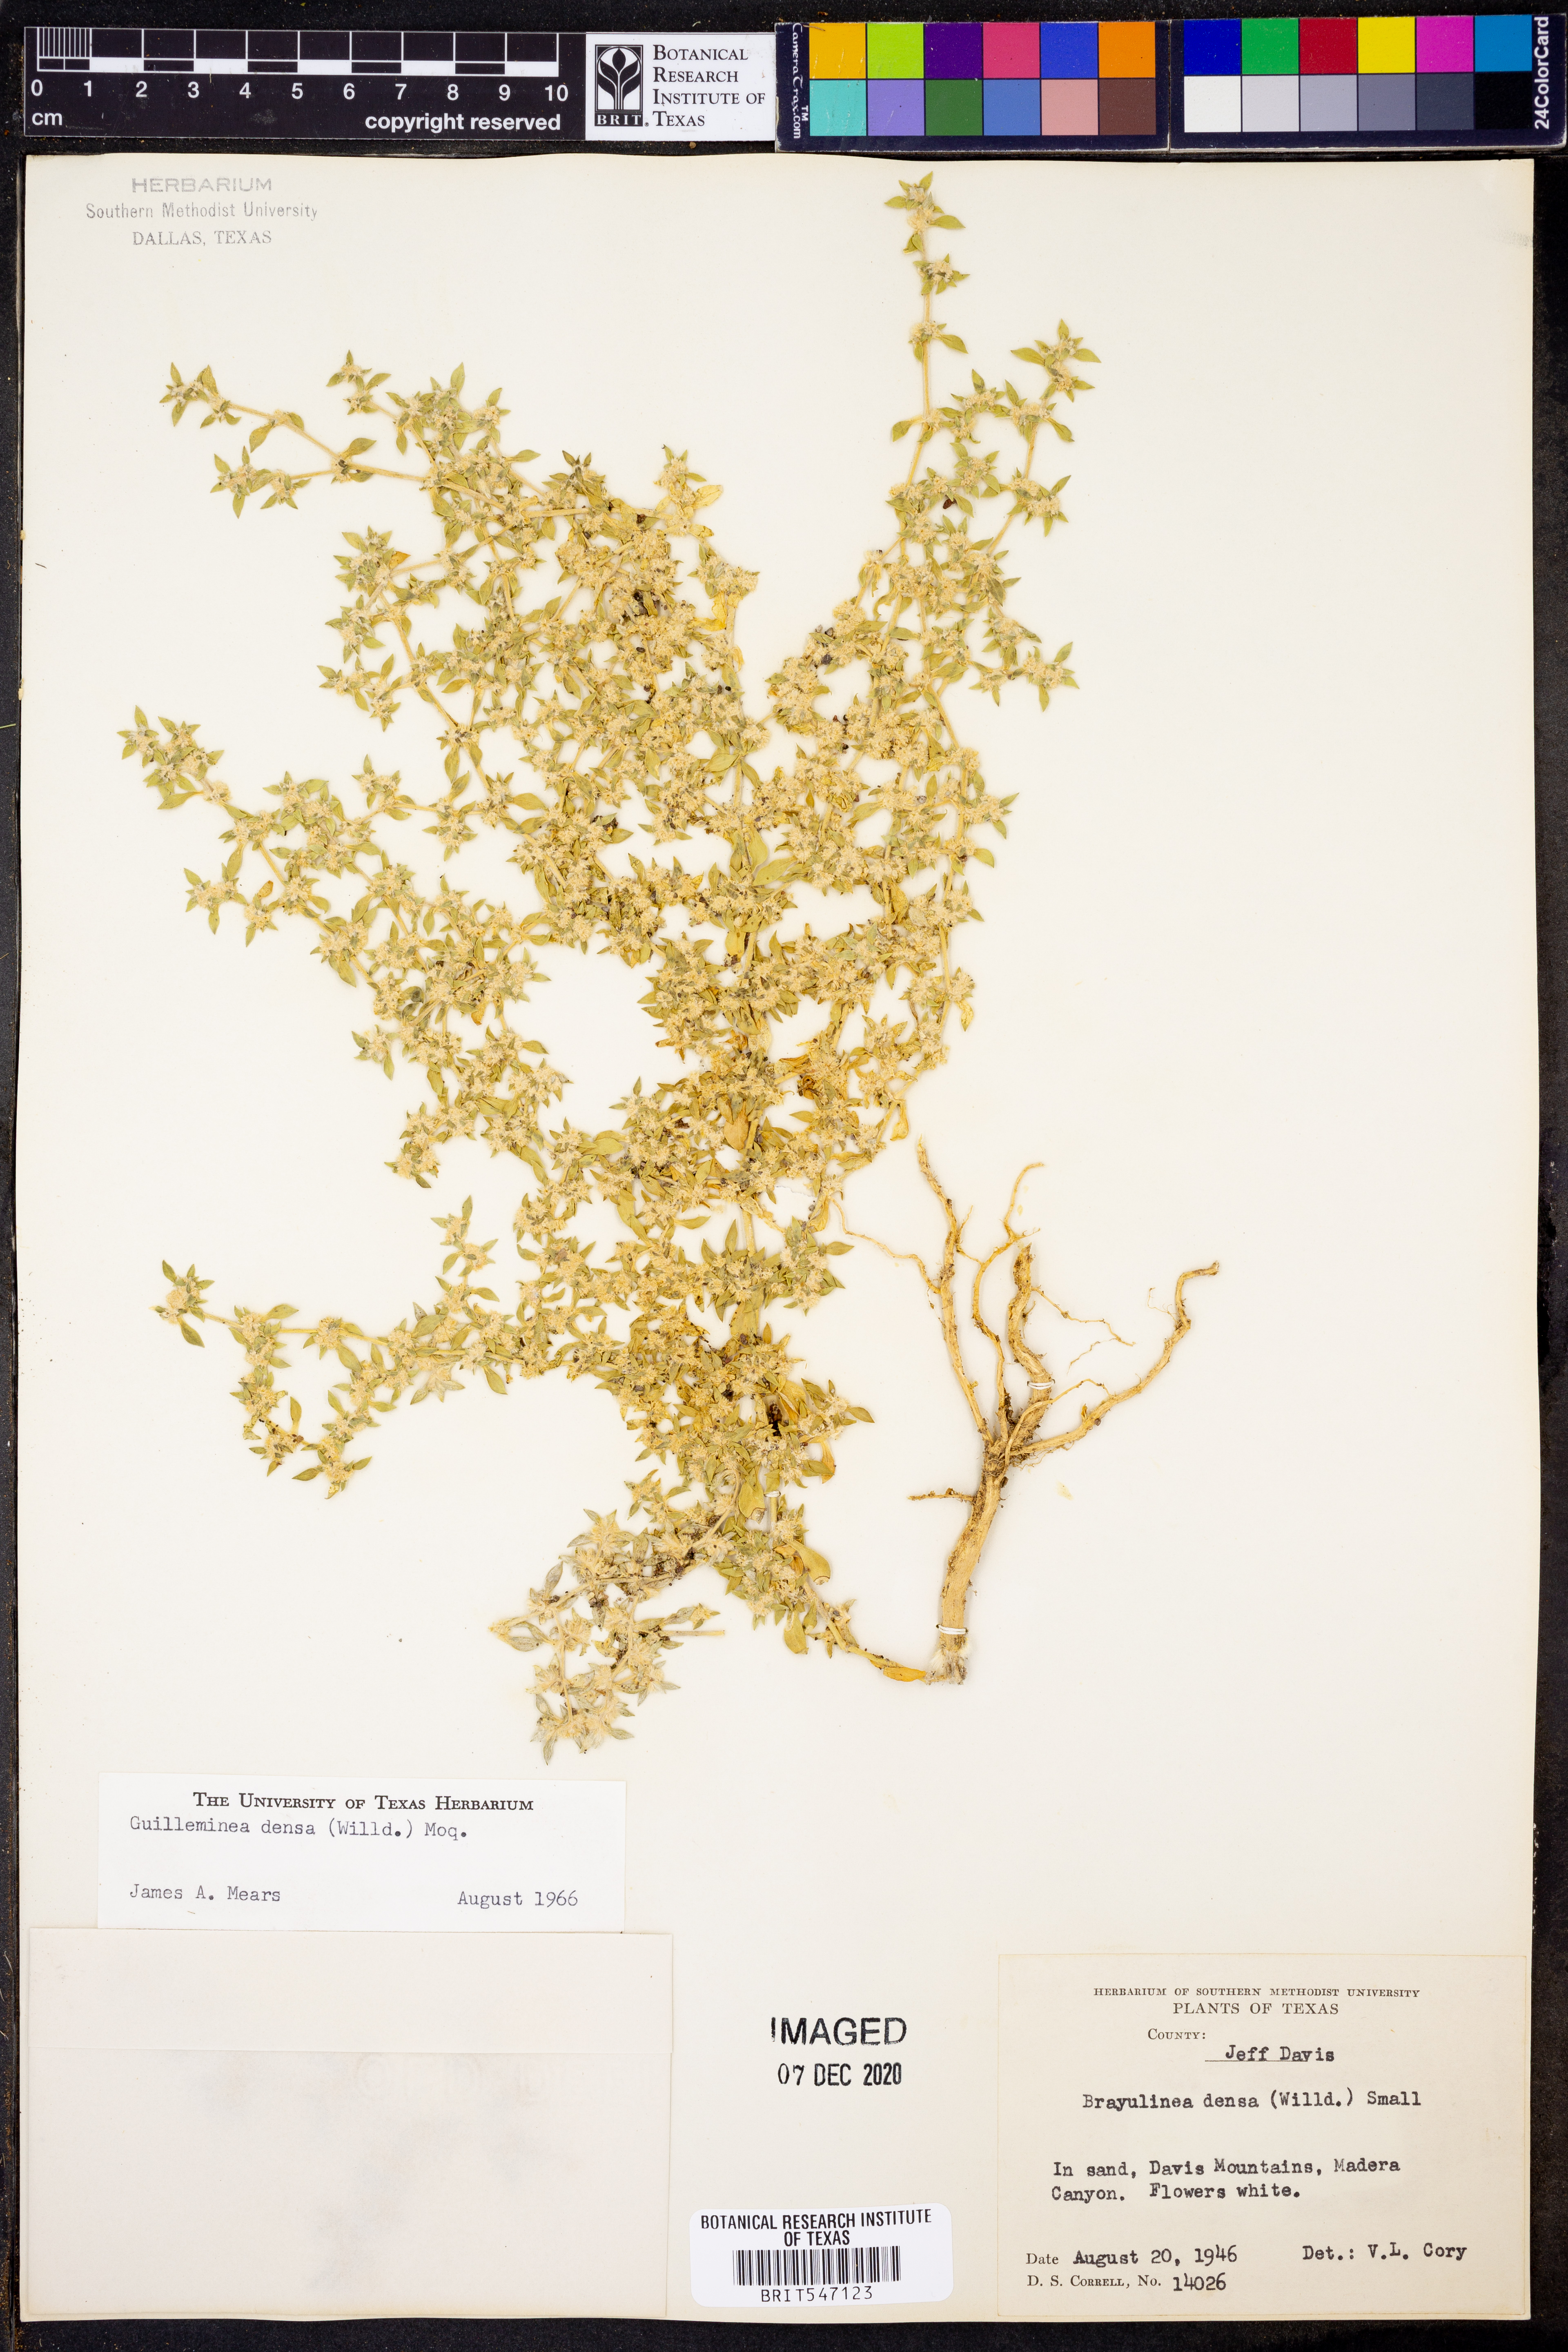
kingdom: Plantae
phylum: Tracheophyta
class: Magnoliopsida
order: Caryophyllales
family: Amaranthaceae
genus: Guilleminea
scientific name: Guilleminea densa
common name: Small matweed
